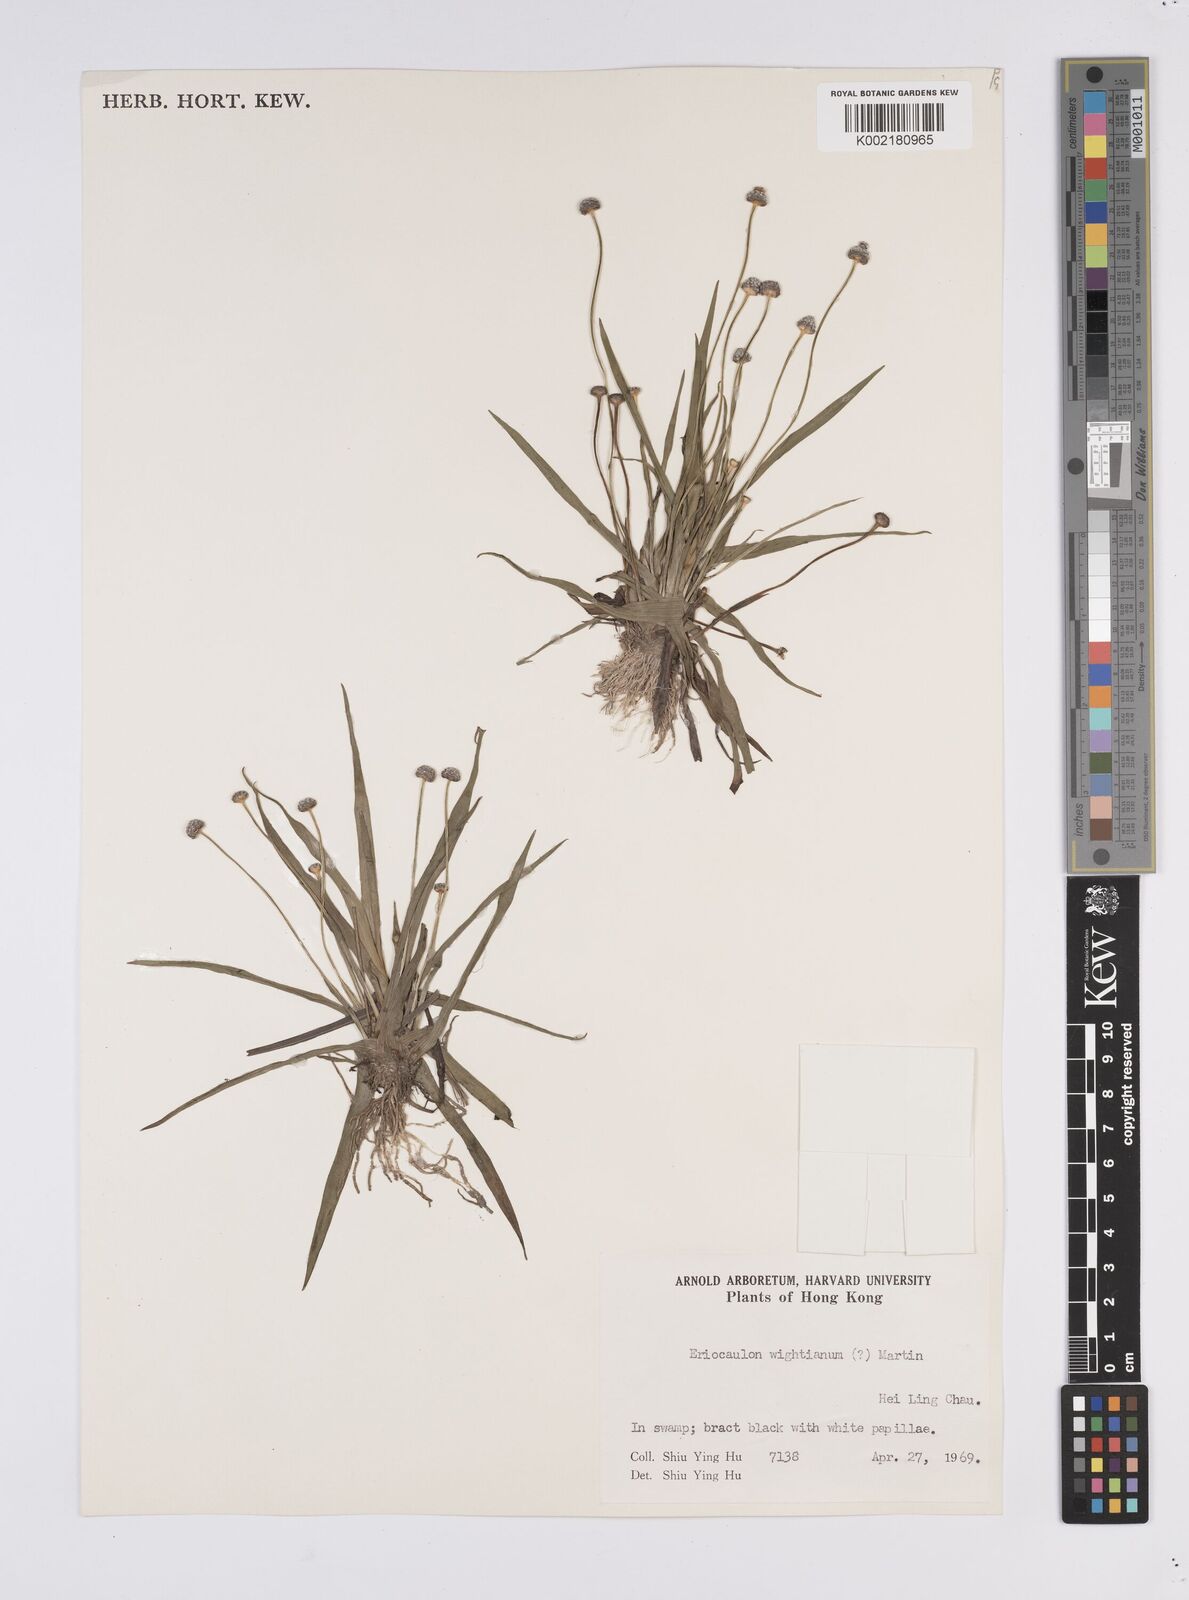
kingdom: Plantae
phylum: Tracheophyta
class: Liliopsida
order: Poales
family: Eriocaulaceae
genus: Eriocaulon
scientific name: Eriocaulon wightianum
